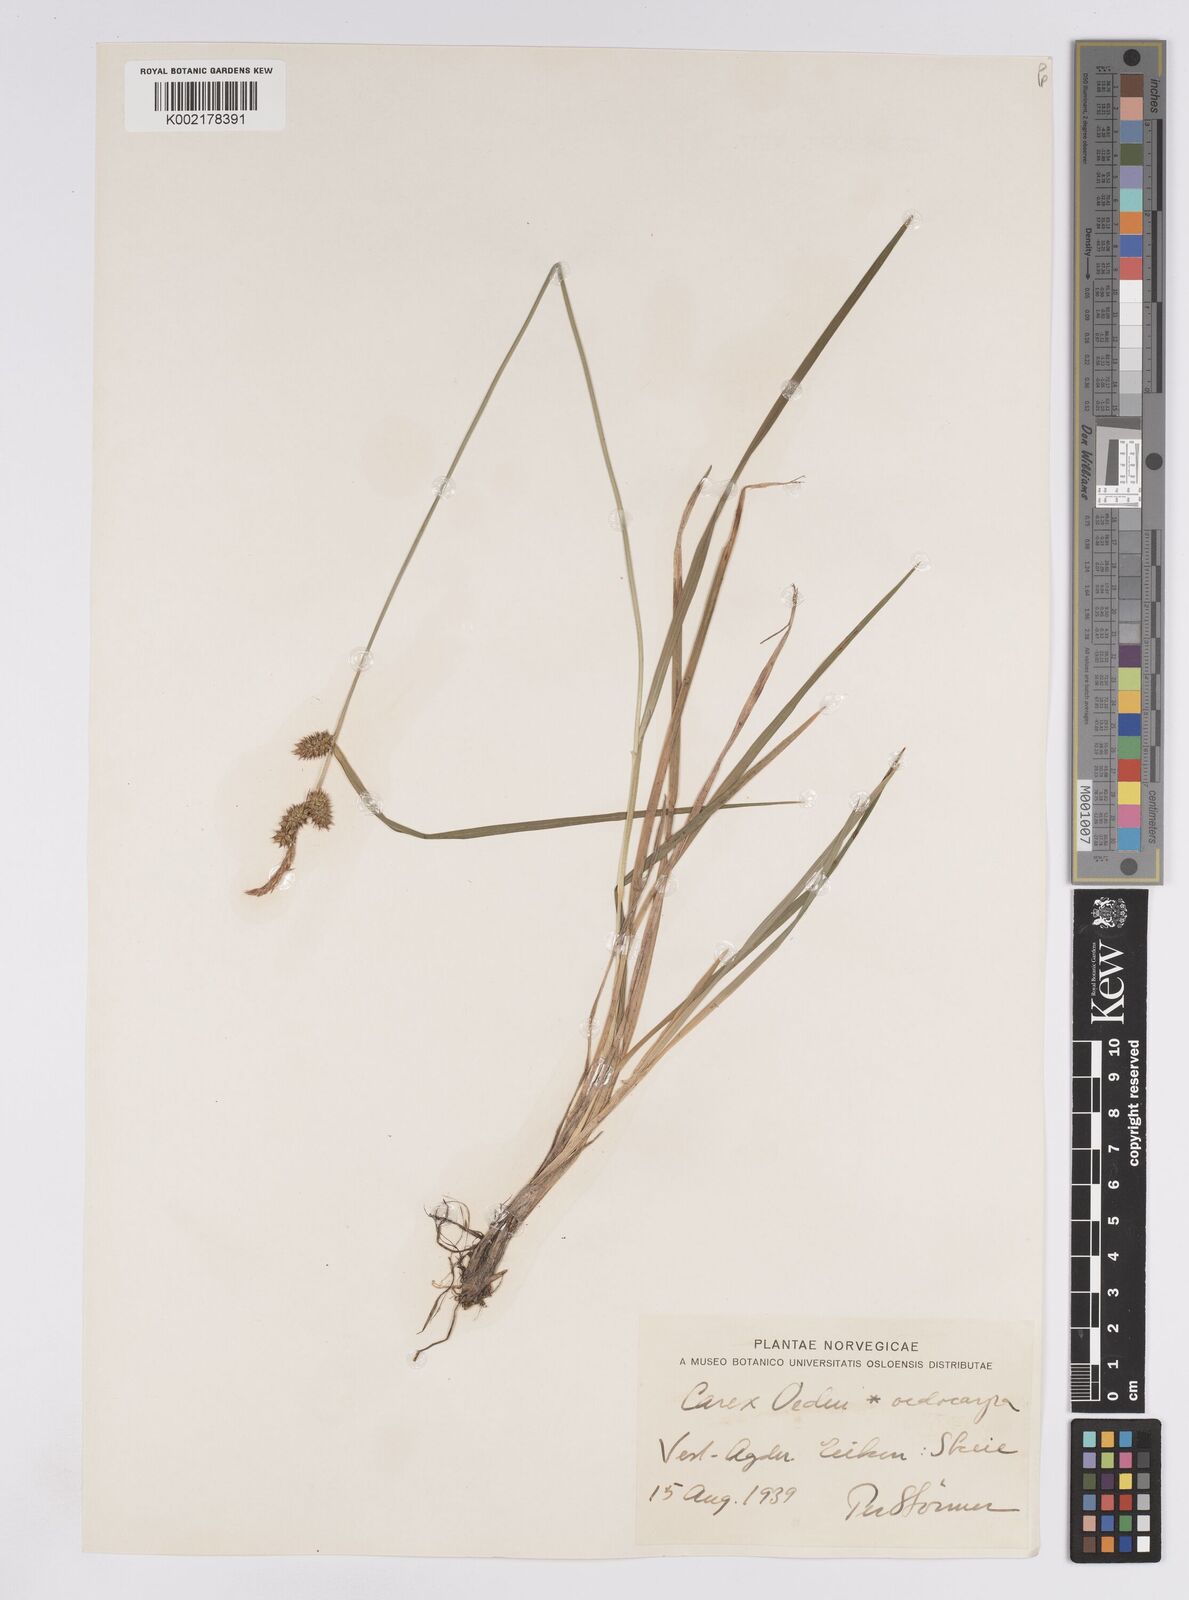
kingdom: Plantae
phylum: Tracheophyta
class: Liliopsida
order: Poales
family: Cyperaceae
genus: Carex
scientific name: Carex demissa
